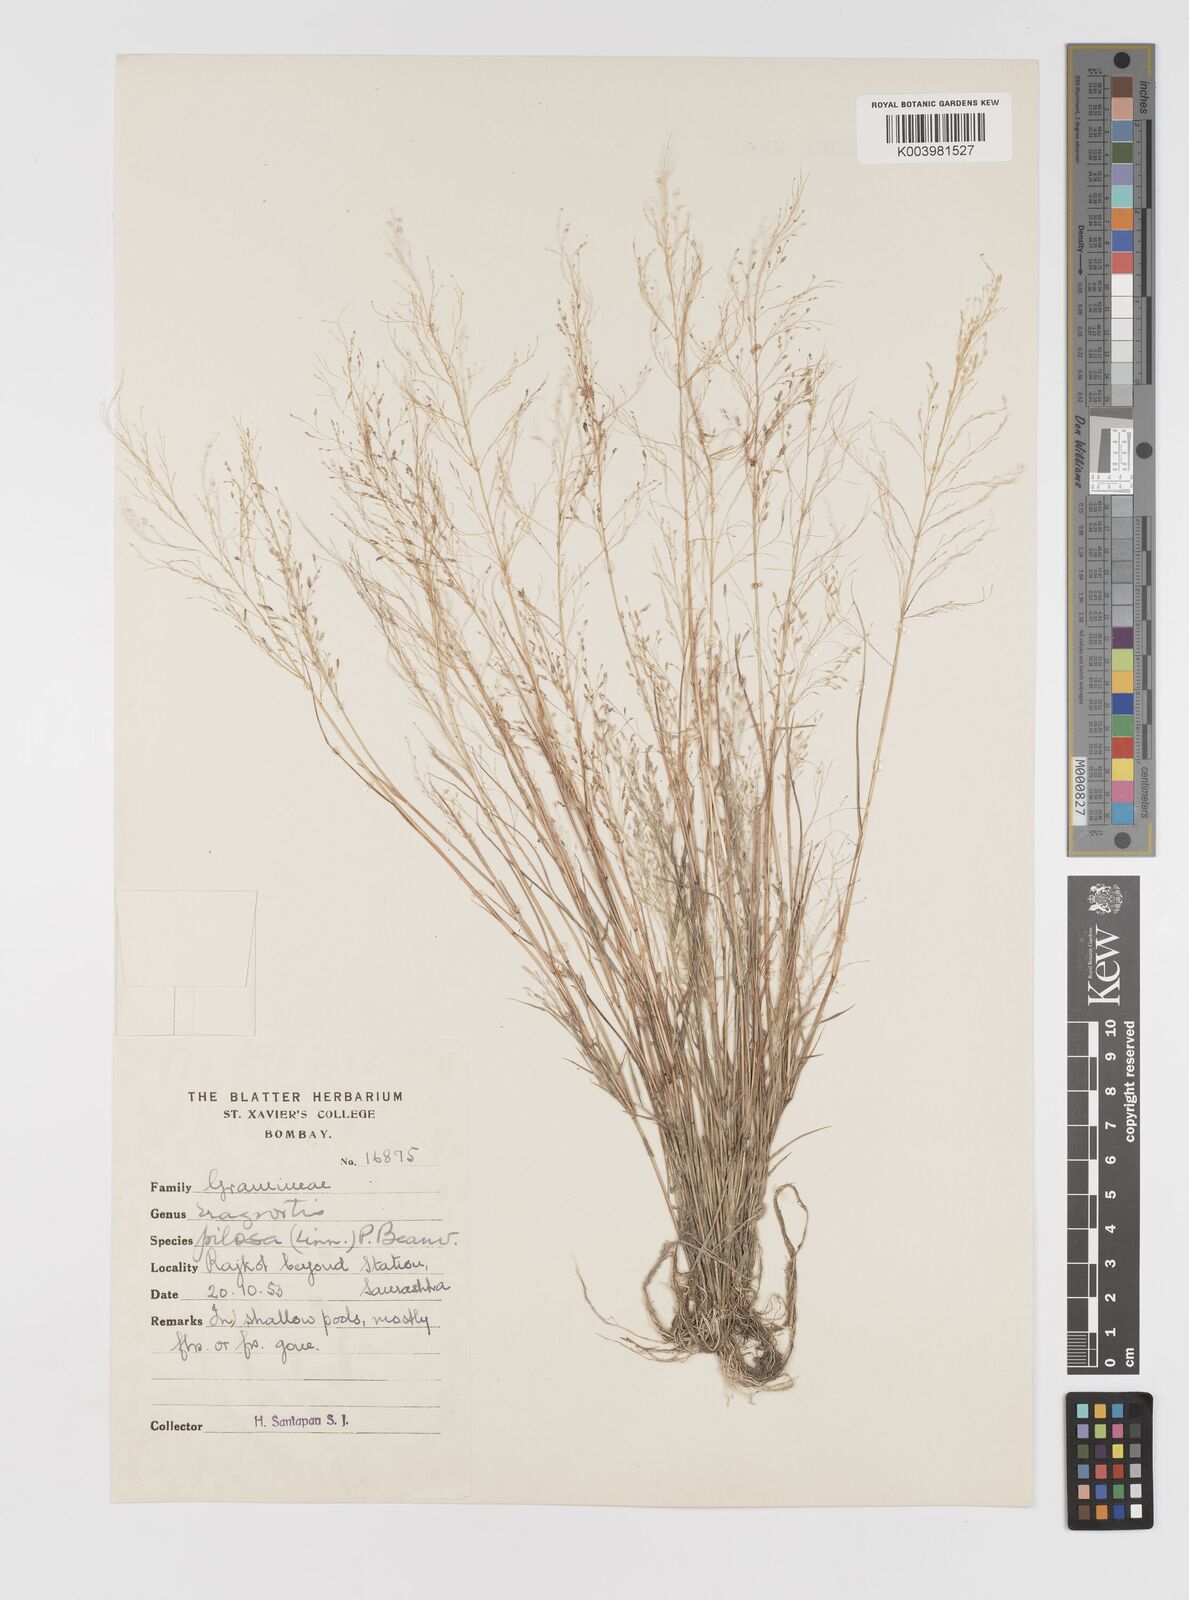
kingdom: Plantae
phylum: Tracheophyta
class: Liliopsida
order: Poales
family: Poaceae
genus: Eragrostis
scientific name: Eragrostis pilosa
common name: Indian lovegrass
